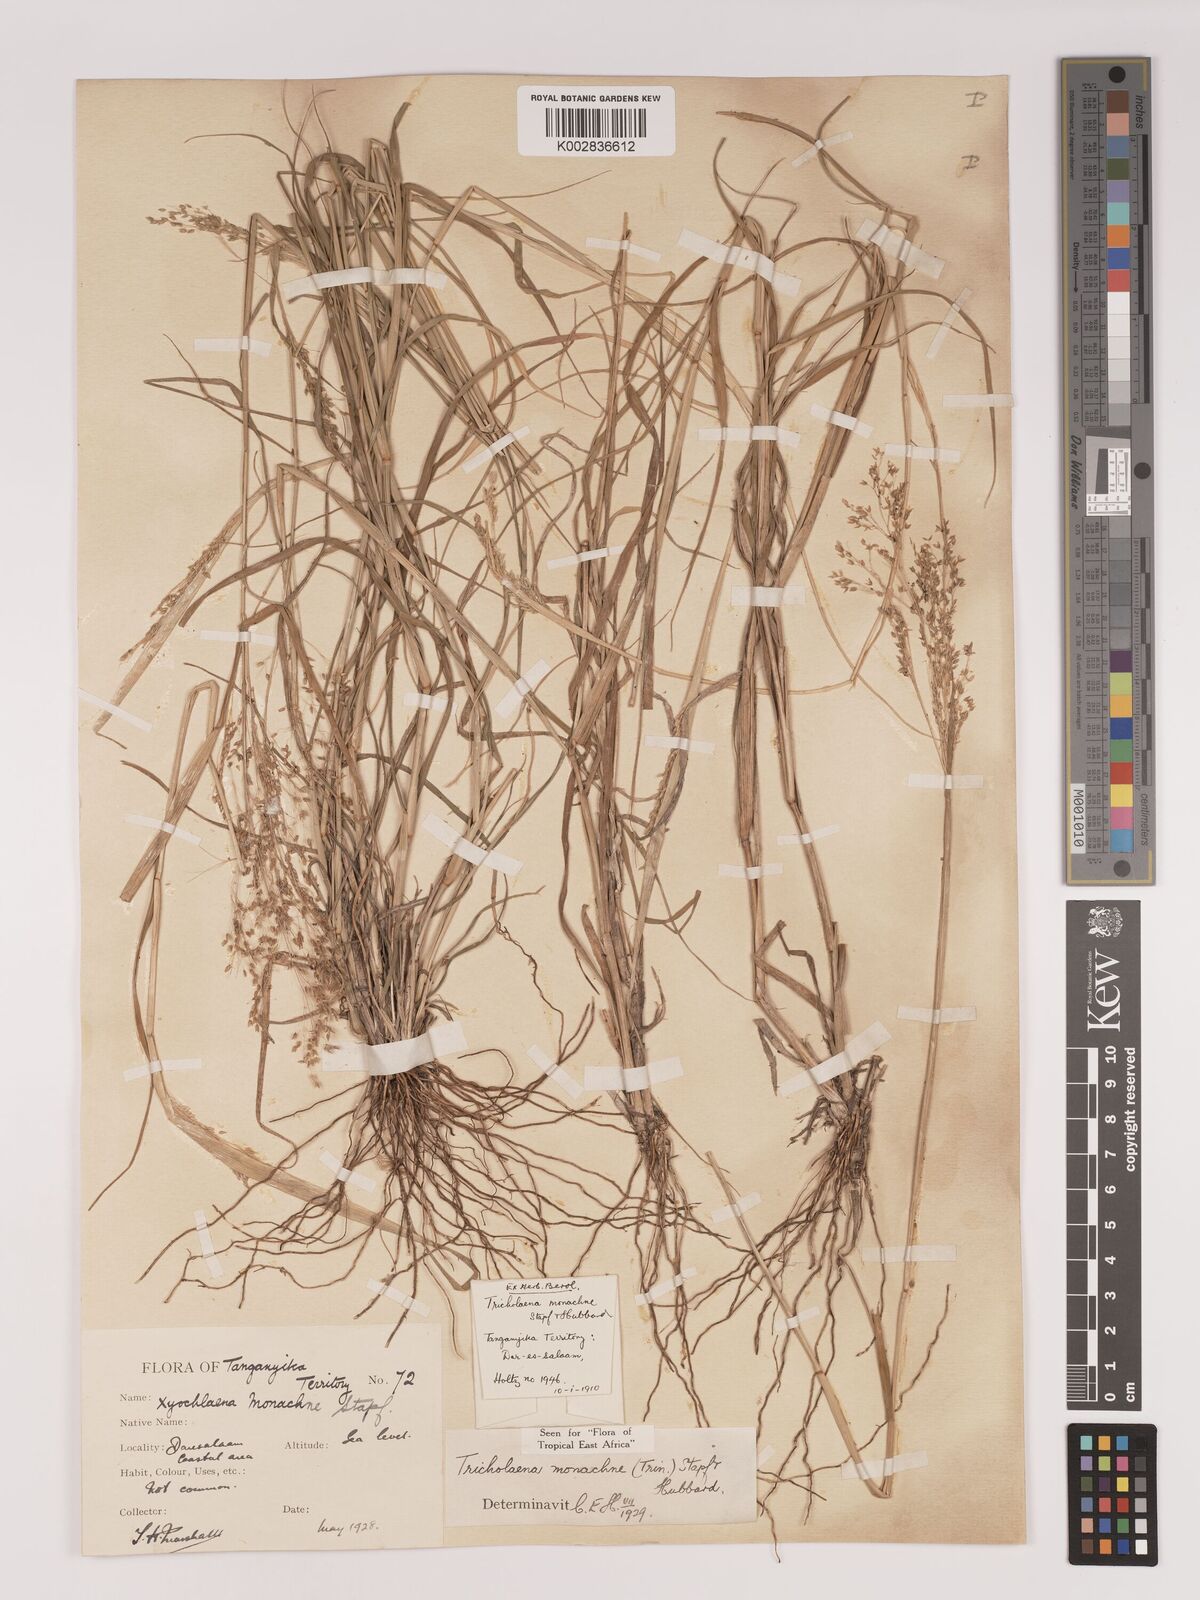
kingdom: Plantae
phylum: Tracheophyta
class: Liliopsida
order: Poales
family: Poaceae
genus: Tricholaena
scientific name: Tricholaena monachne
